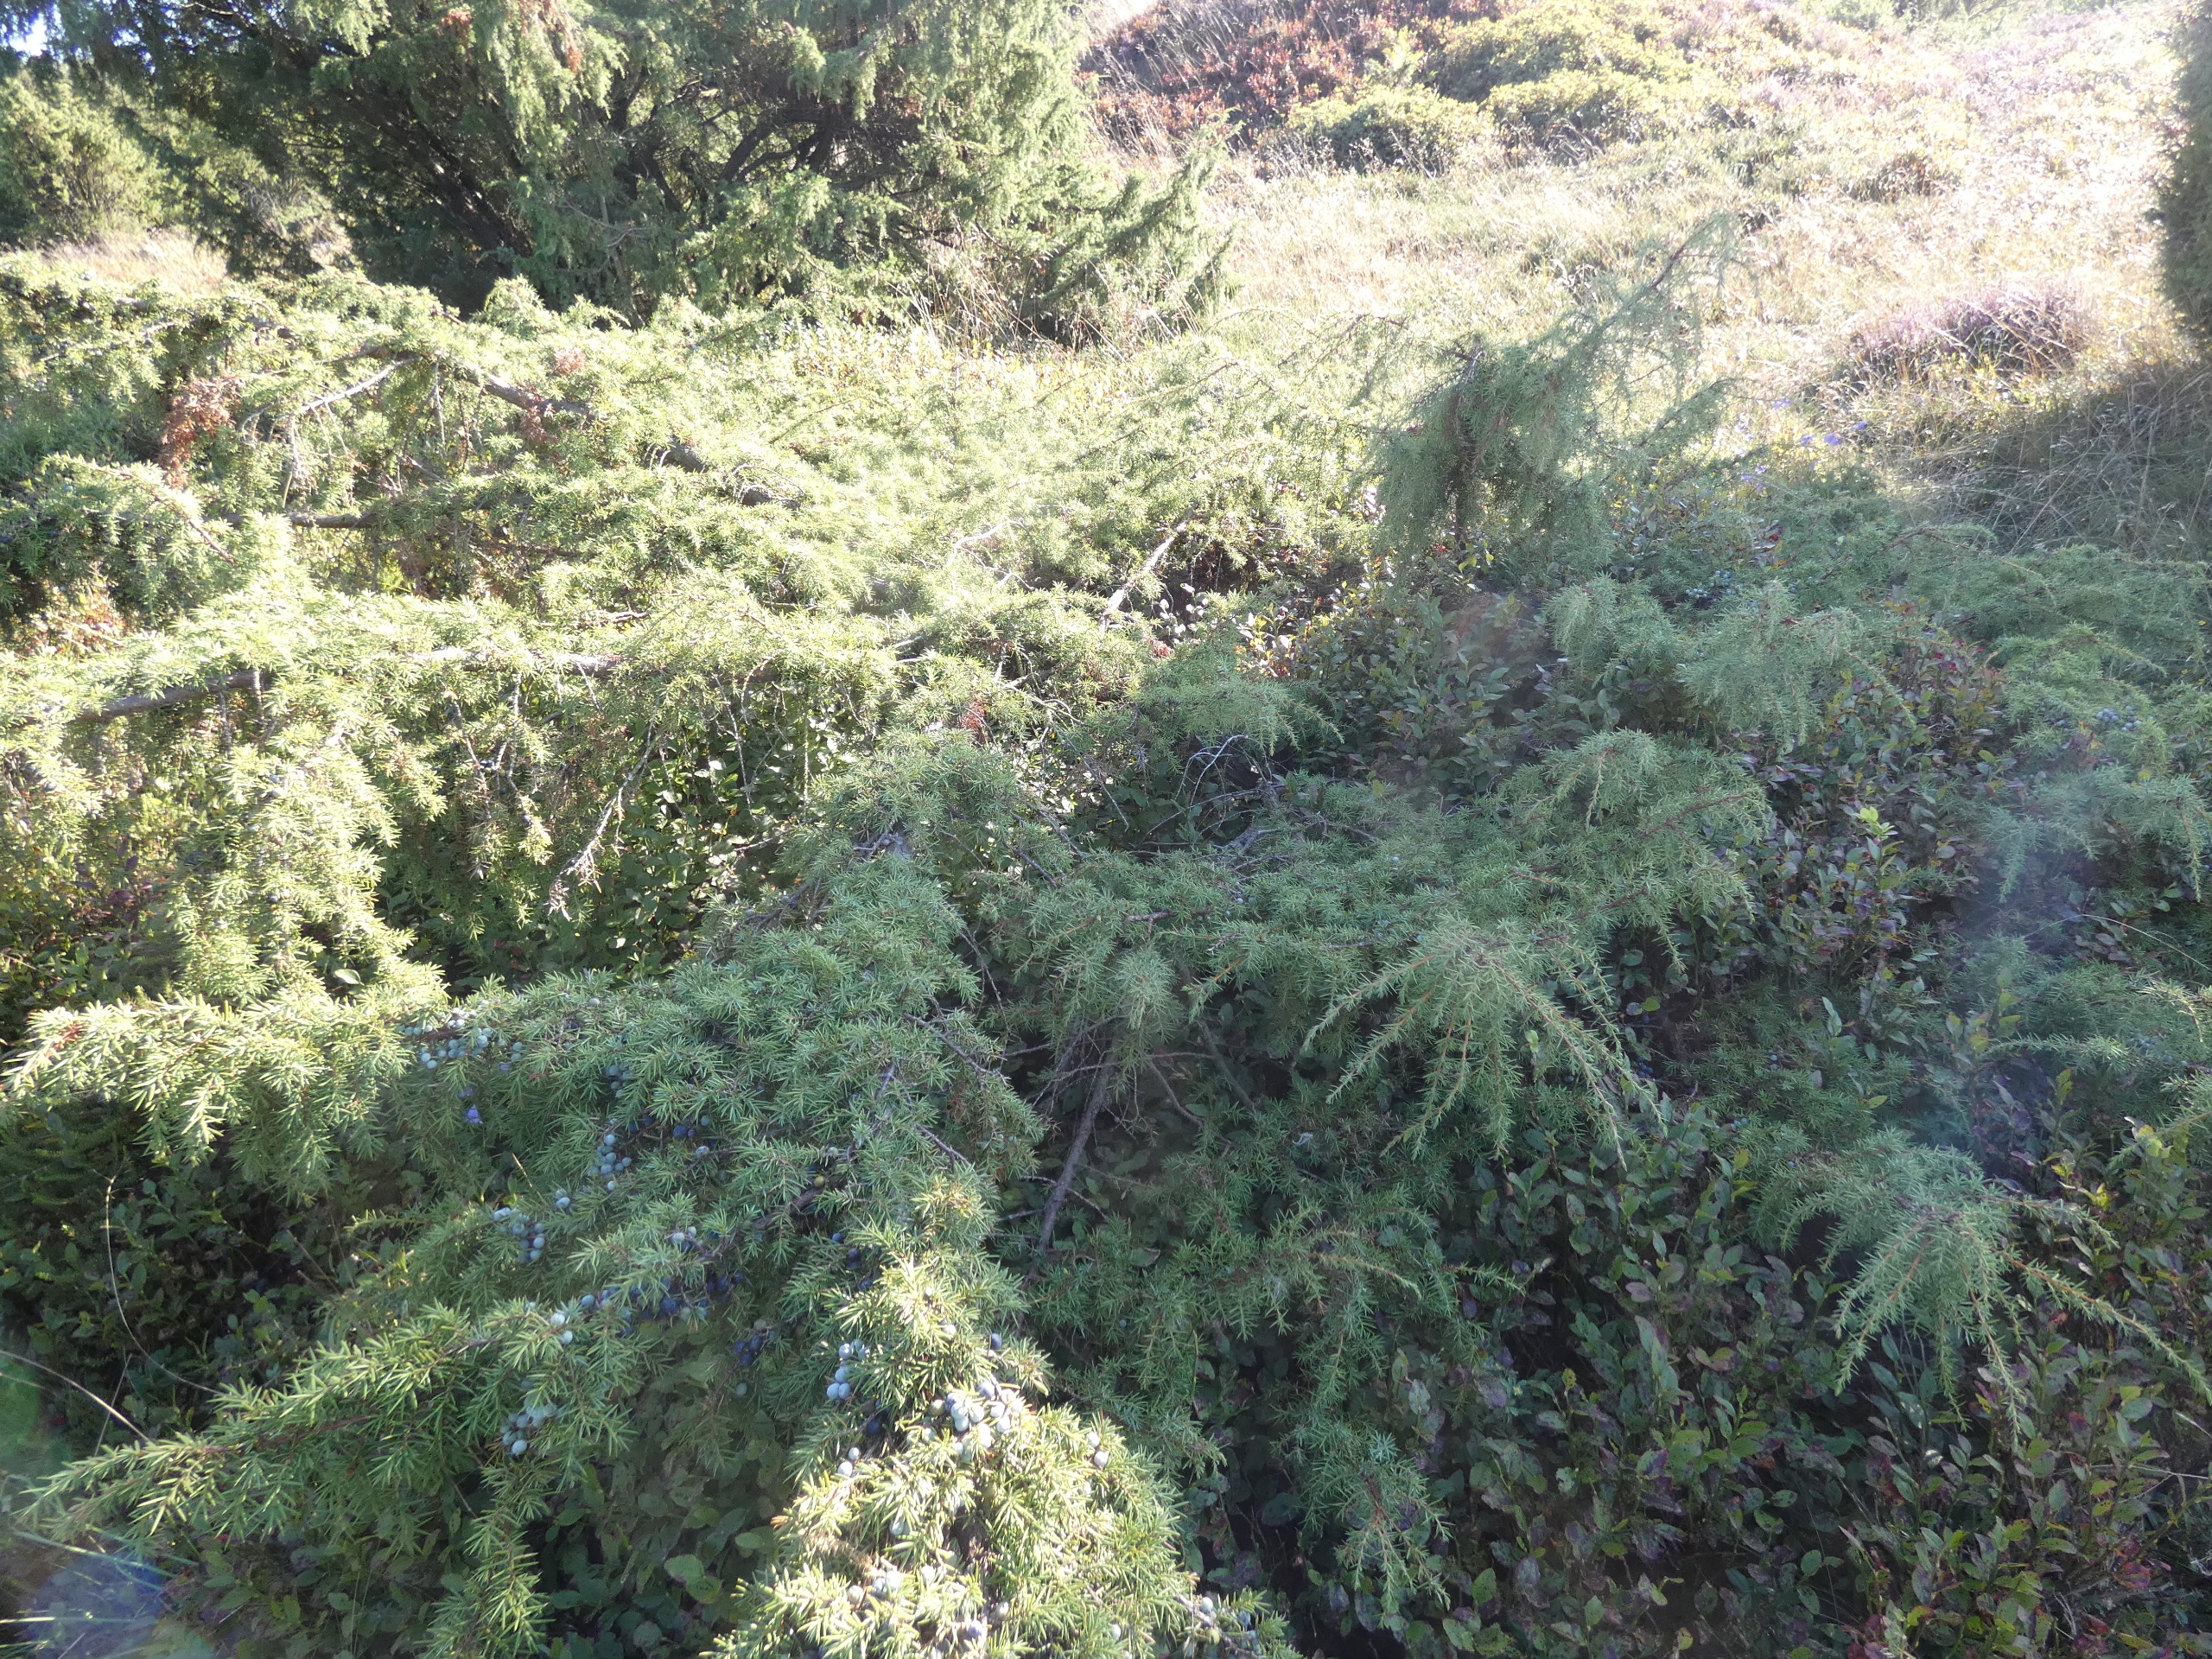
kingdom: Plantae
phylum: Tracheophyta
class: Pinopsida
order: Pinales
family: Cupressaceae
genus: Juniperus
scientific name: Juniperus communis
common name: Almindelig ene
